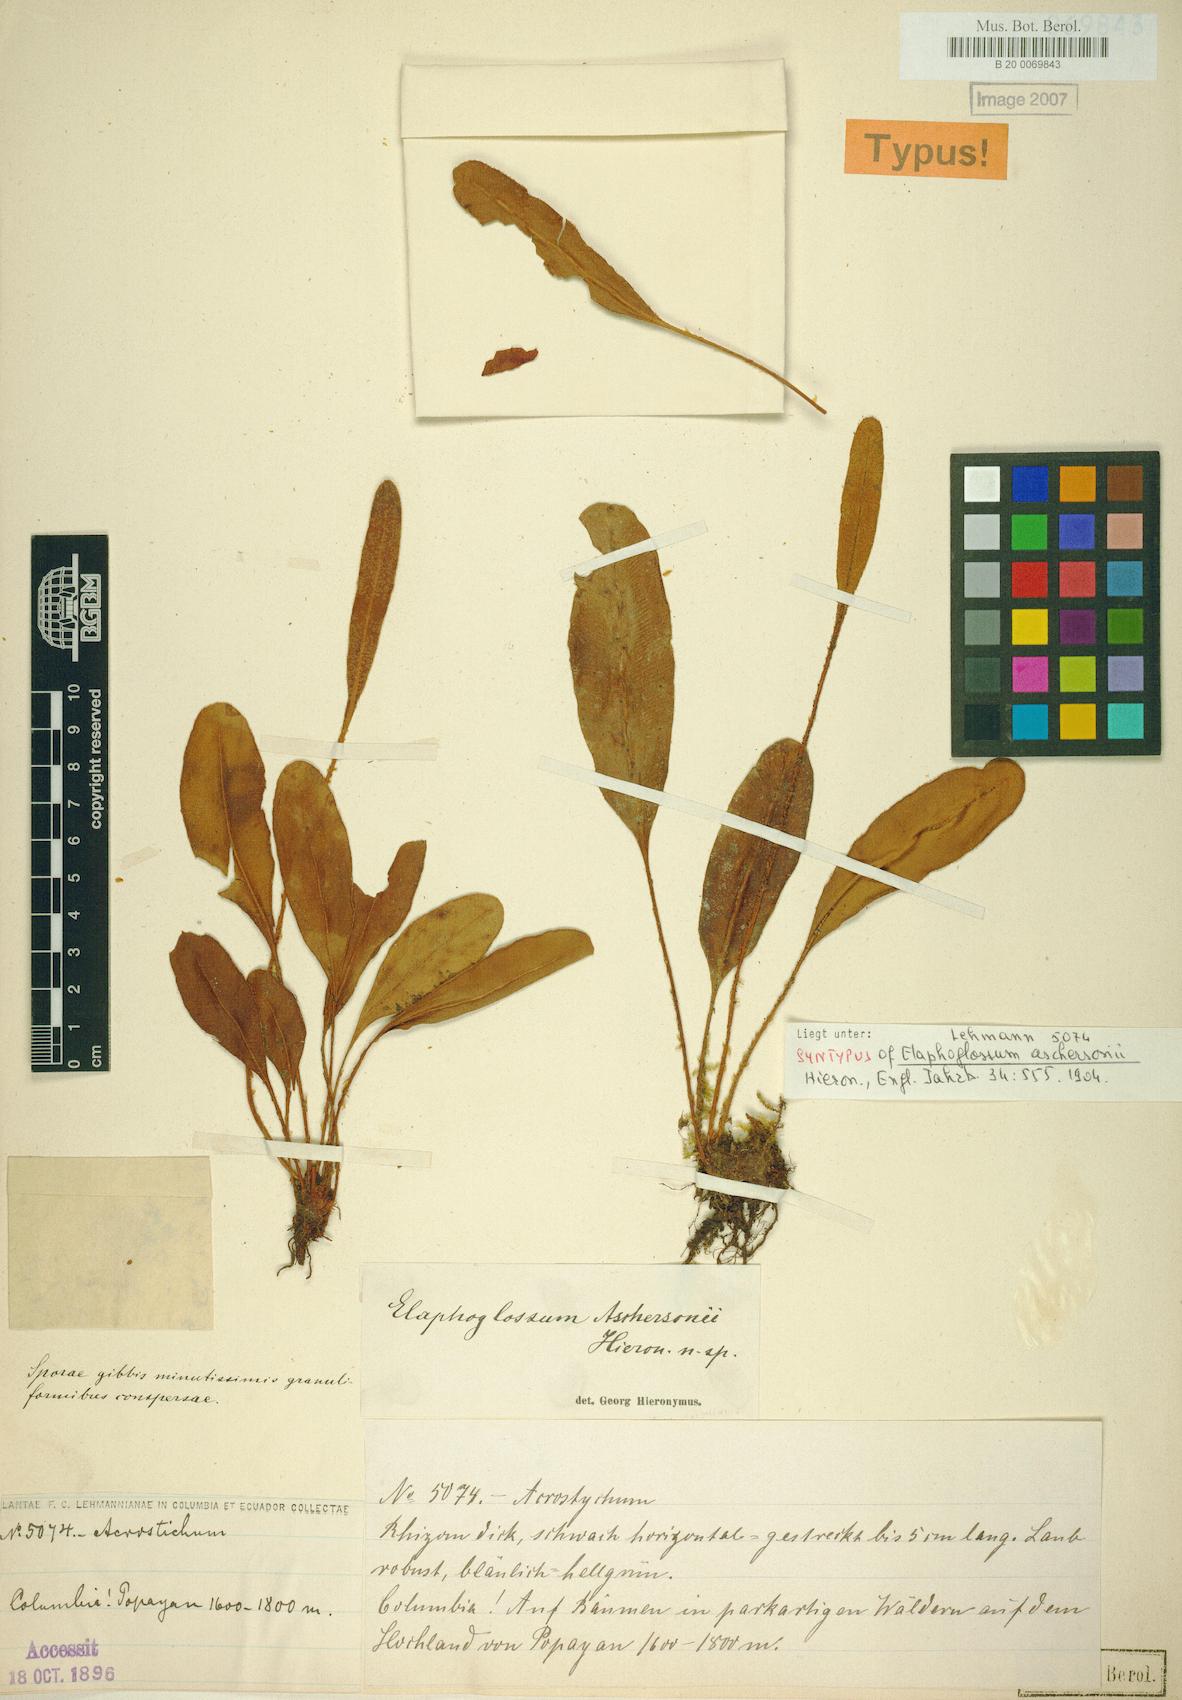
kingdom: Plantae
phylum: Tracheophyta
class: Polypodiopsida
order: Polypodiales
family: Dryopteridaceae
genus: Elaphoglossum
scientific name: Elaphoglossum aschersonii
